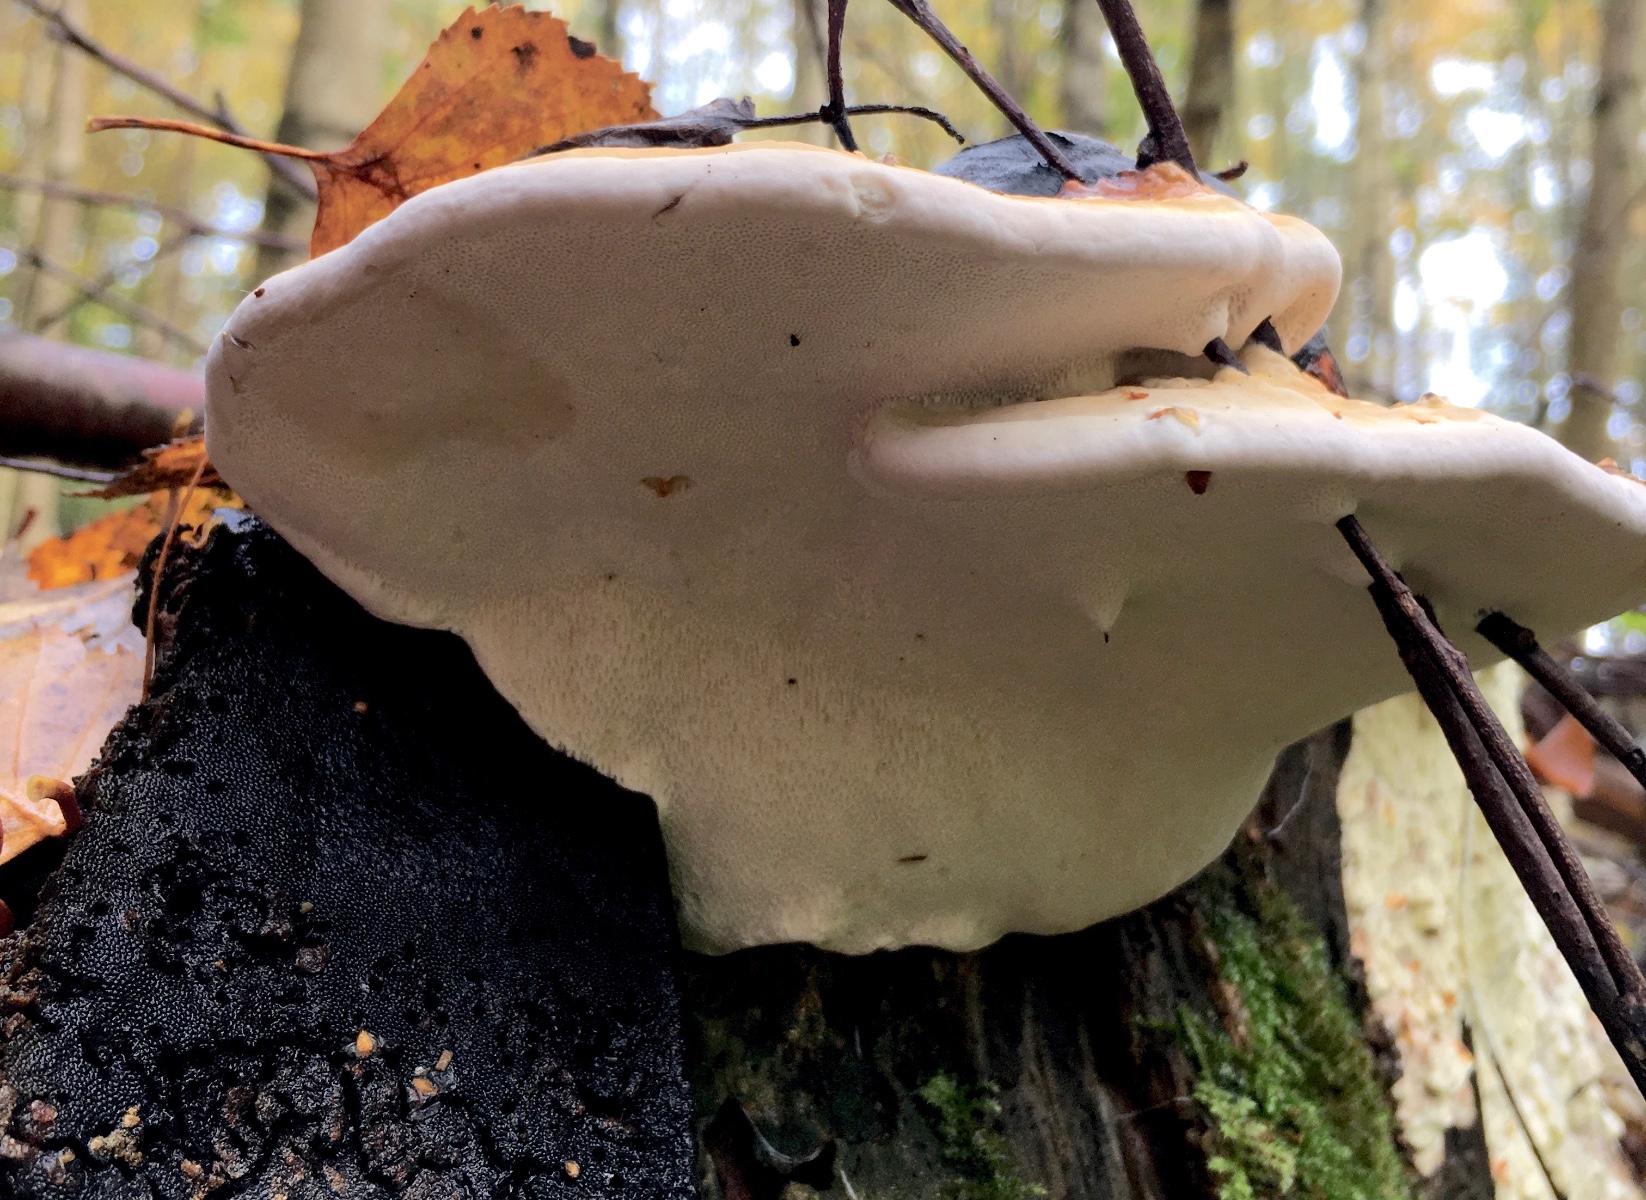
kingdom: Fungi
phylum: Basidiomycota
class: Agaricomycetes
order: Polyporales
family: Fomitopsidaceae
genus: Fomitopsis
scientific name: Fomitopsis pinicola
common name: randbæltet hovporesvamp
